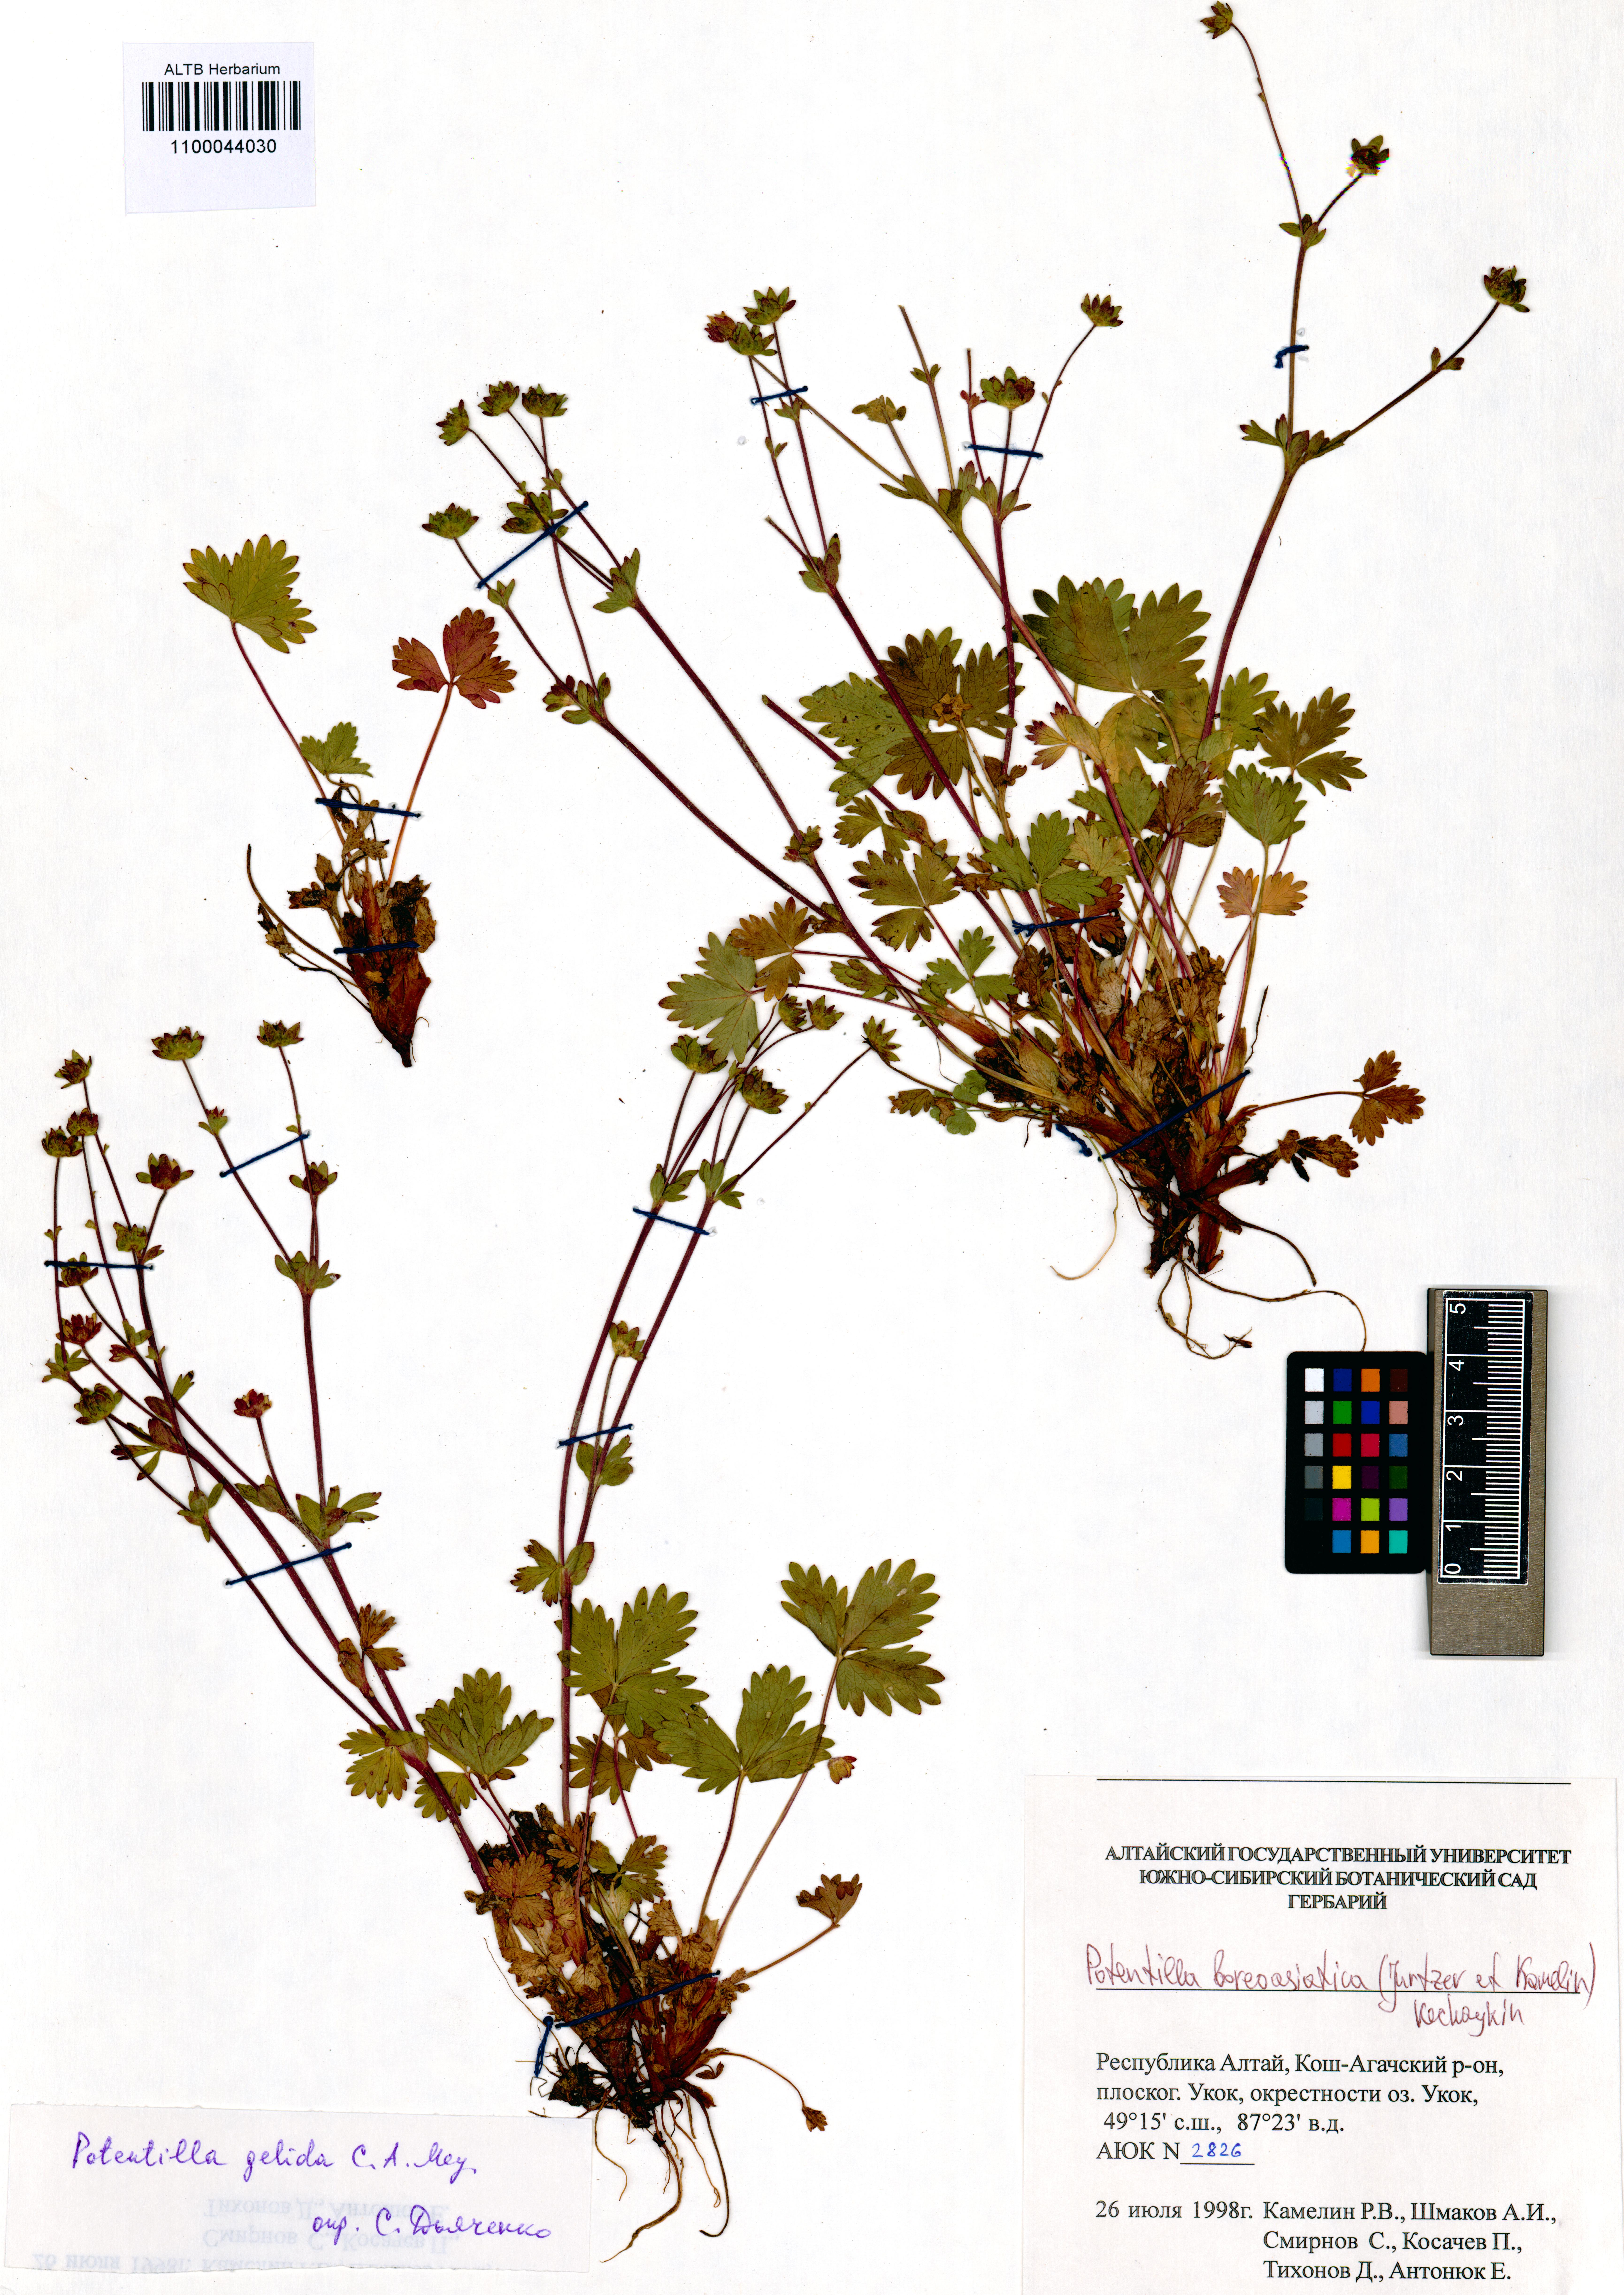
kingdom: Plantae
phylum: Tracheophyta
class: Magnoliopsida
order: Rosales
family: Rosaceae
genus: Potentilla
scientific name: Potentilla
